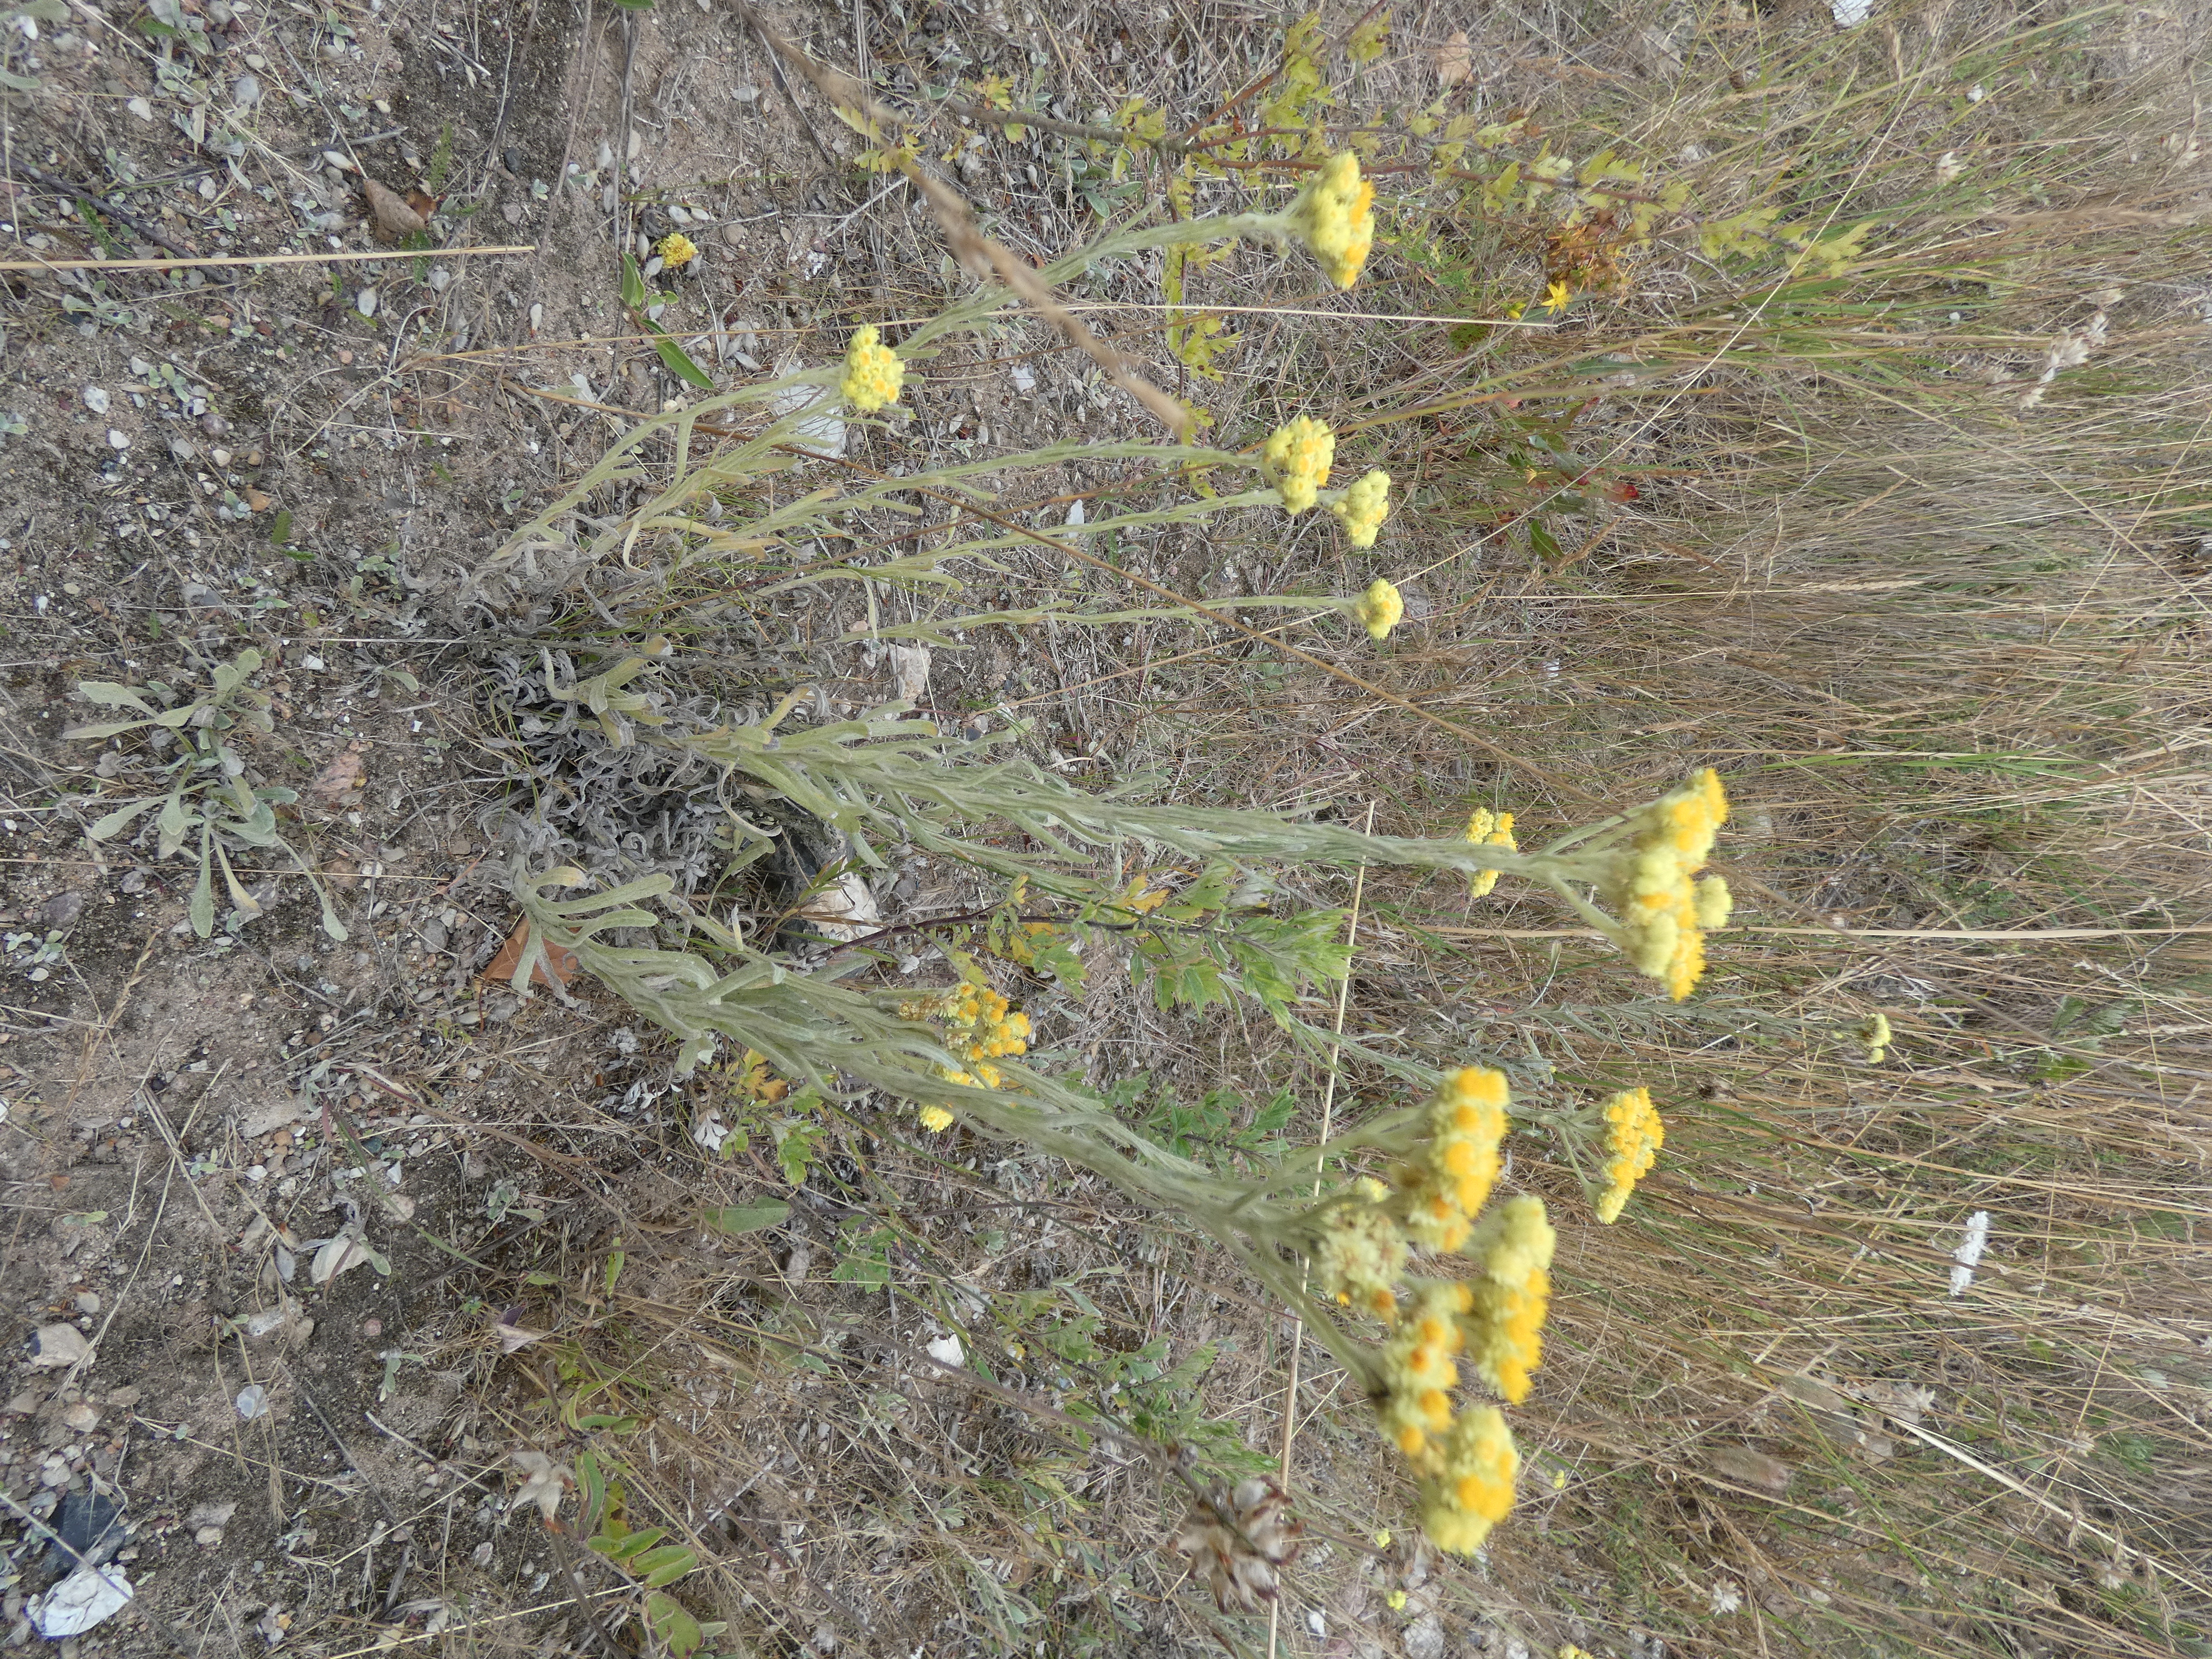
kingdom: Plantae
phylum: Tracheophyta
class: Magnoliopsida
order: Asterales
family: Asteraceae
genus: Helichrysum
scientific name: Helichrysum arenarium
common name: Gul evighedsblomst
